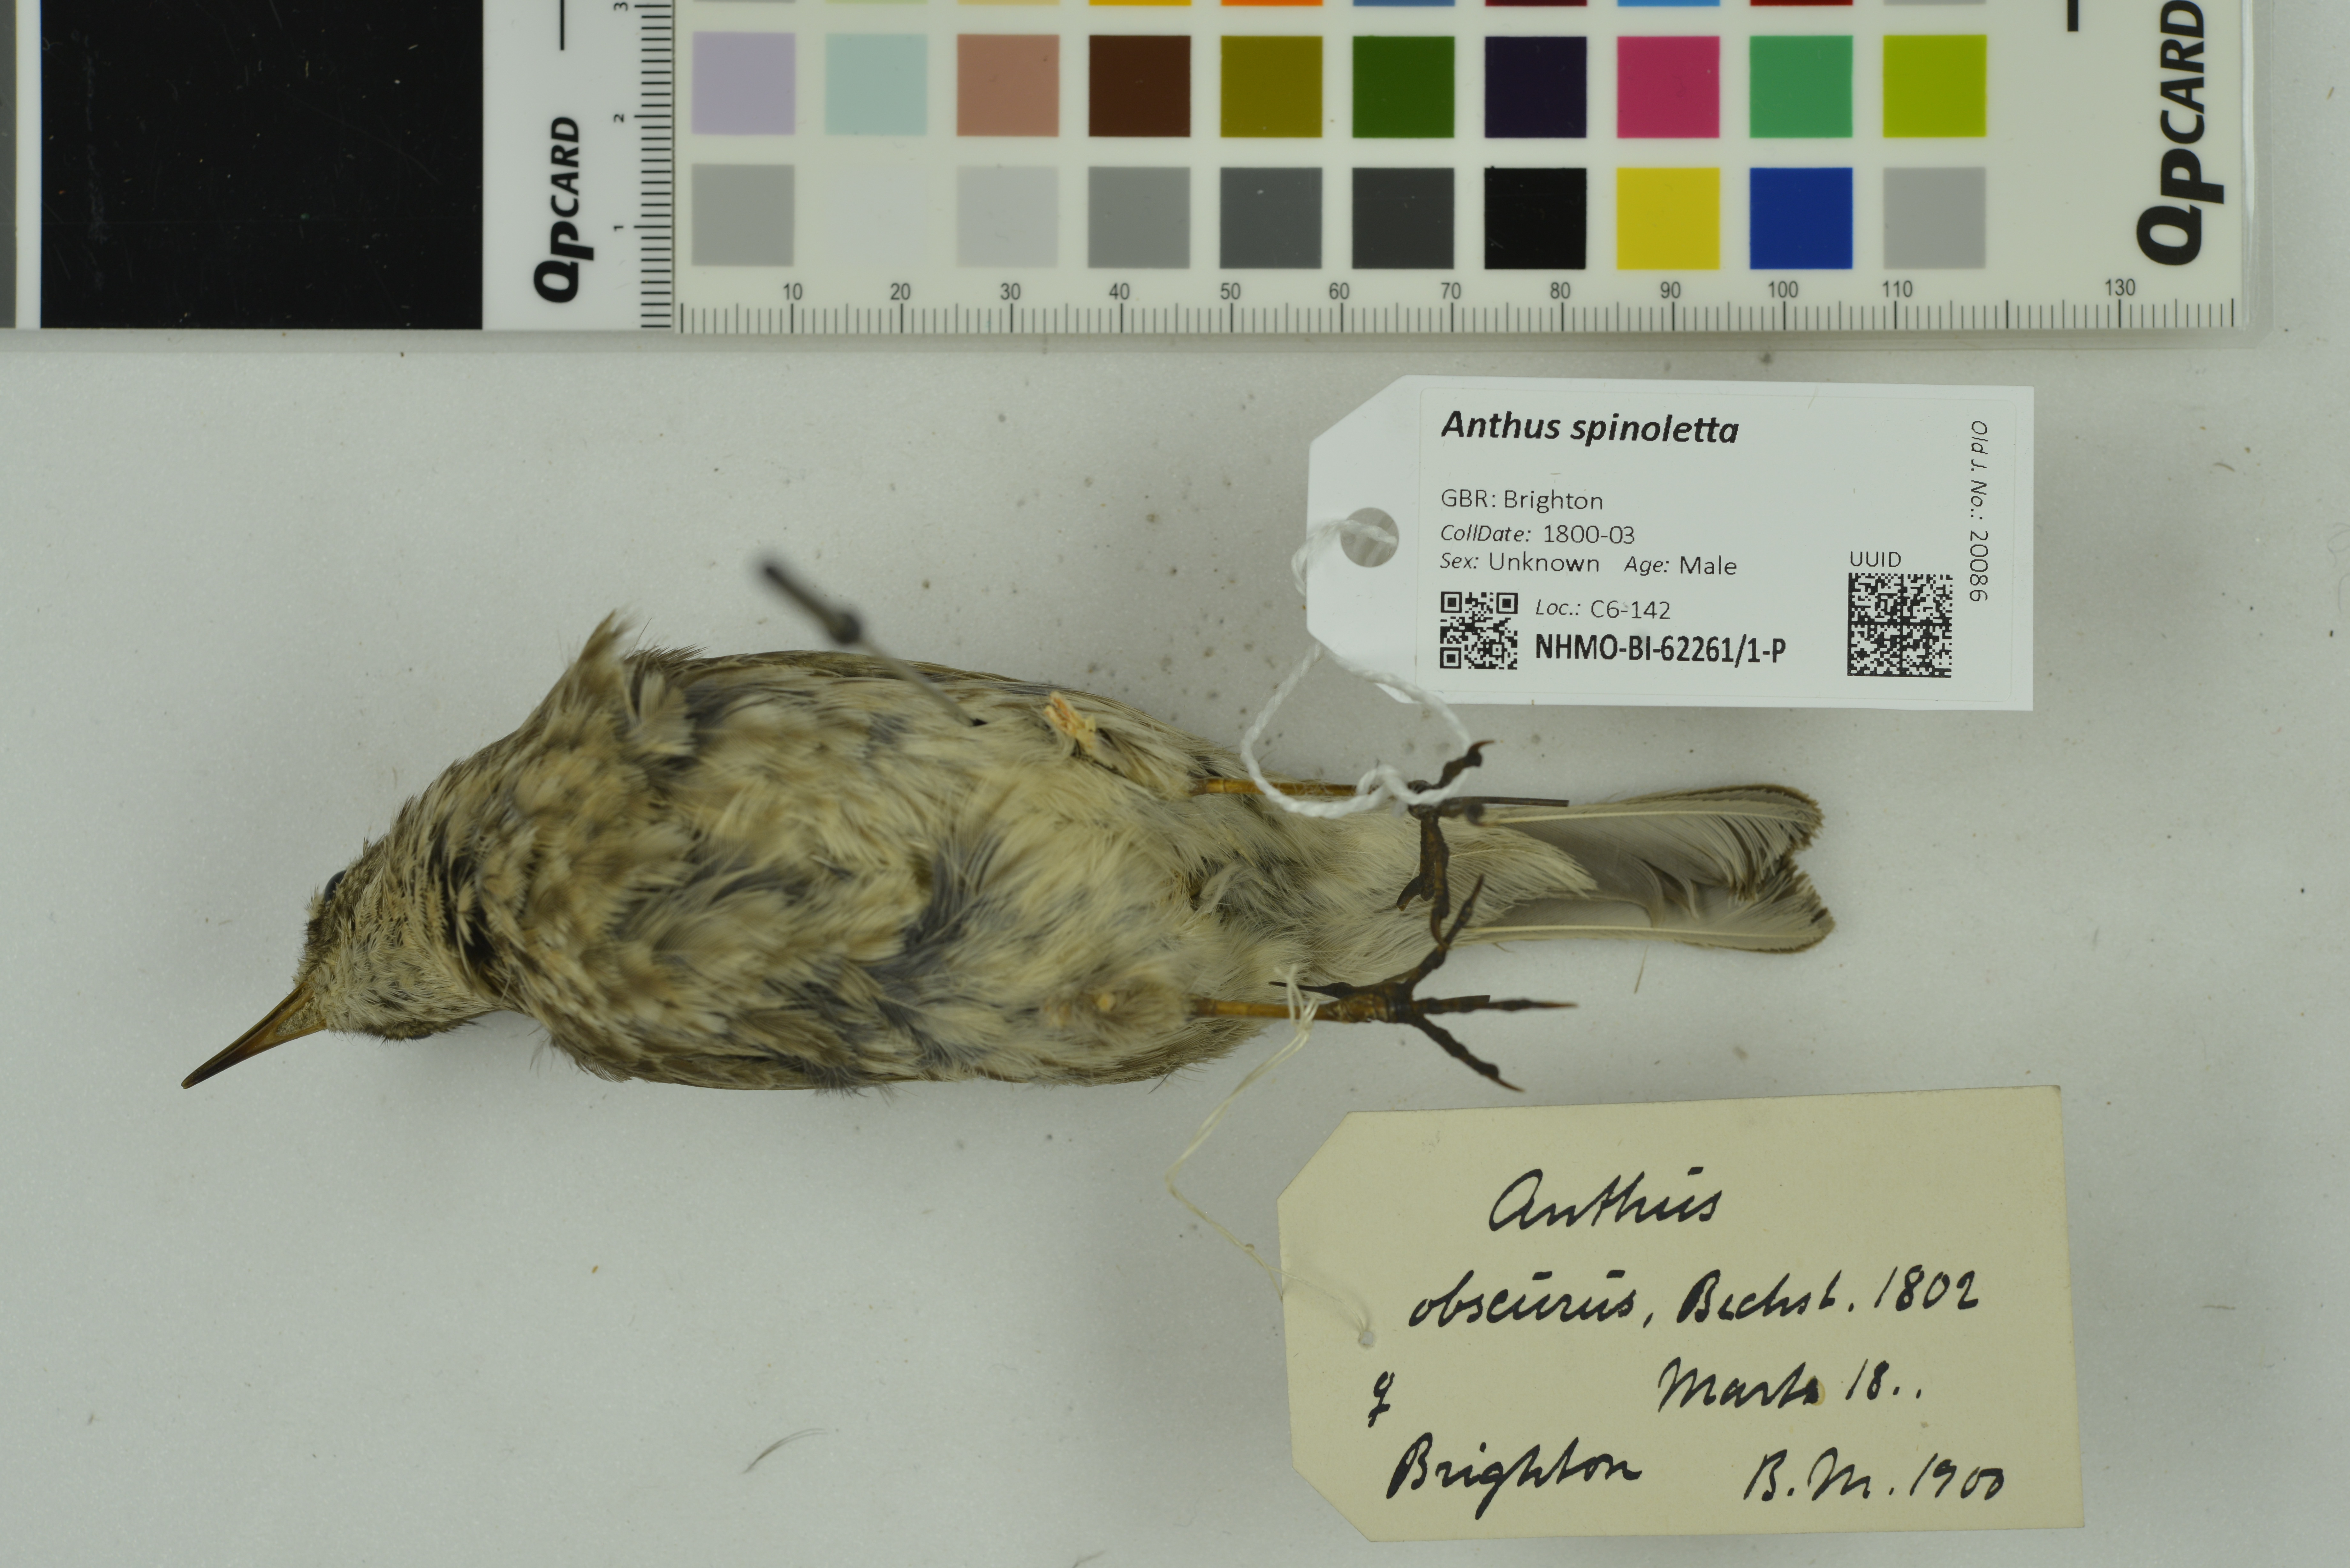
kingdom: Animalia
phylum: Chordata
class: Aves
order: Passeriformes
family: Motacillidae
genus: Anthus
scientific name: Anthus spinoletta
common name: Water pipit
